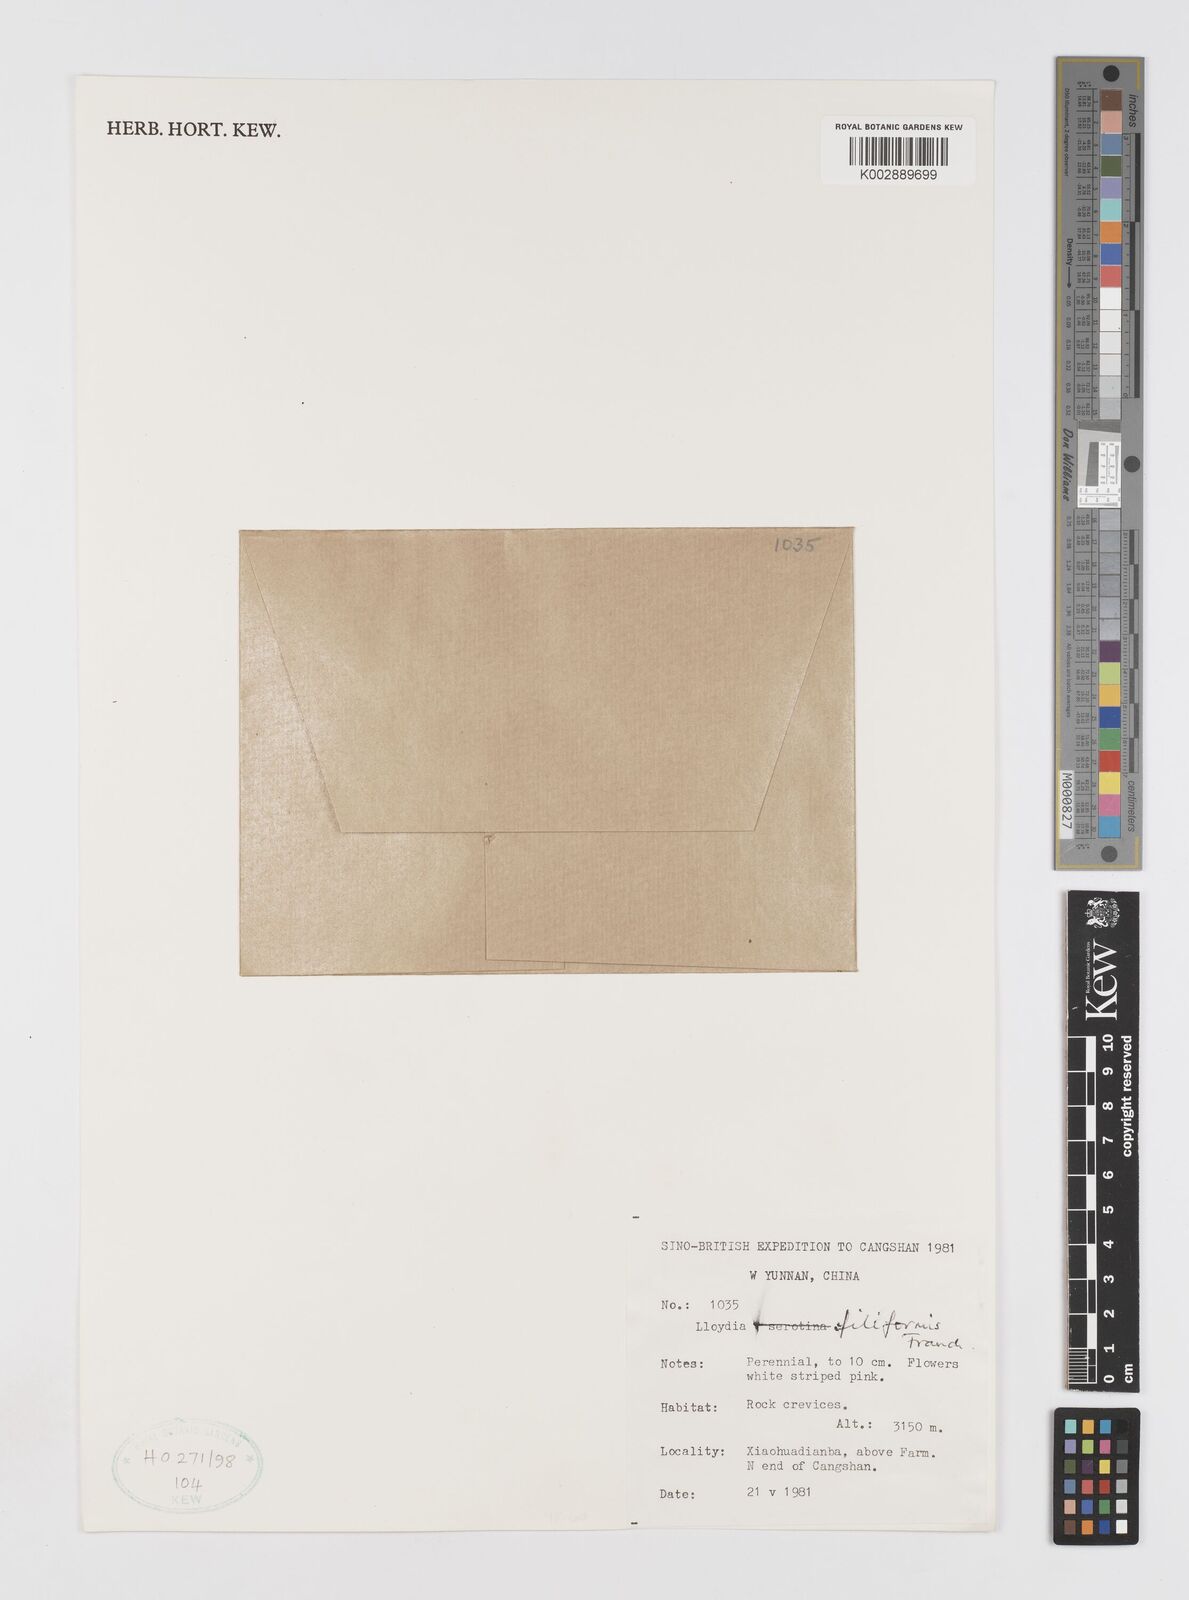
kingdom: Plantae
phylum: Tracheophyta
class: Liliopsida
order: Liliales
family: Liliaceae
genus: Gagea
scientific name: Gagea filiformis
